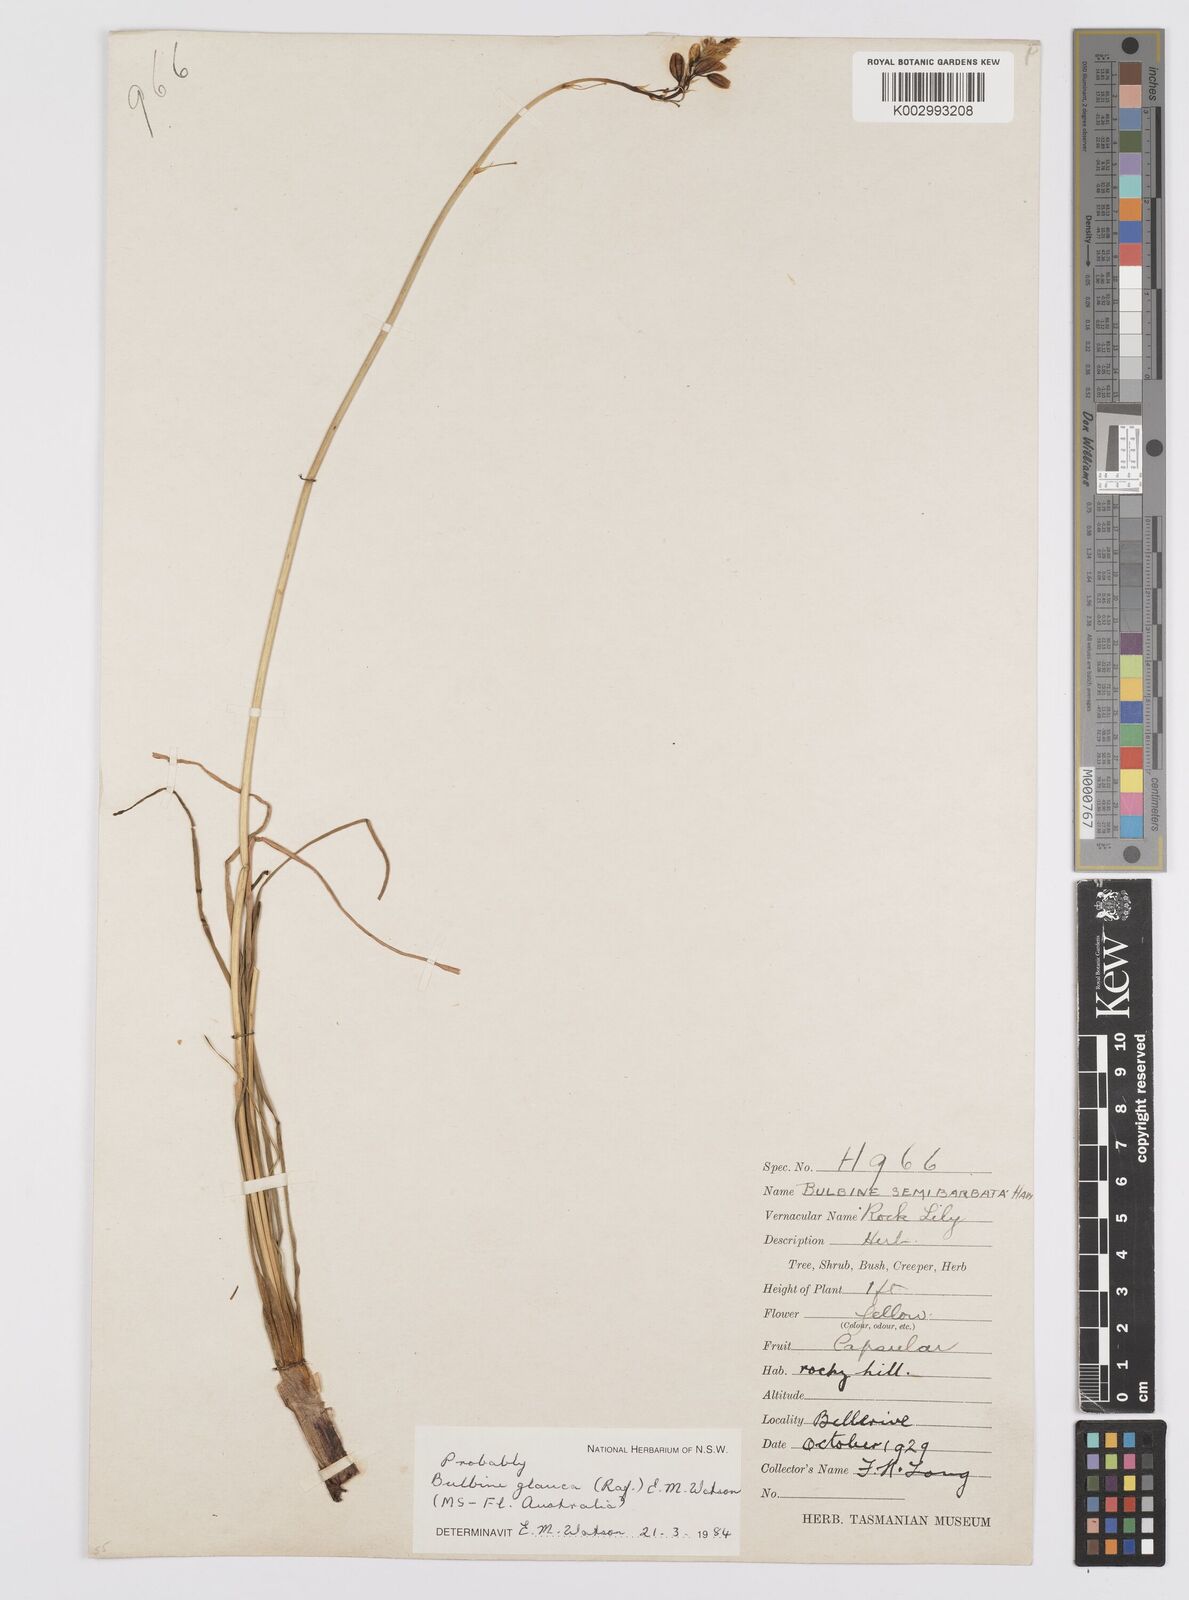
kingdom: Plantae
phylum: Tracheophyta
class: Liliopsida
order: Asparagales
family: Asphodelaceae
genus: Bulbine
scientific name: Bulbine glauca
